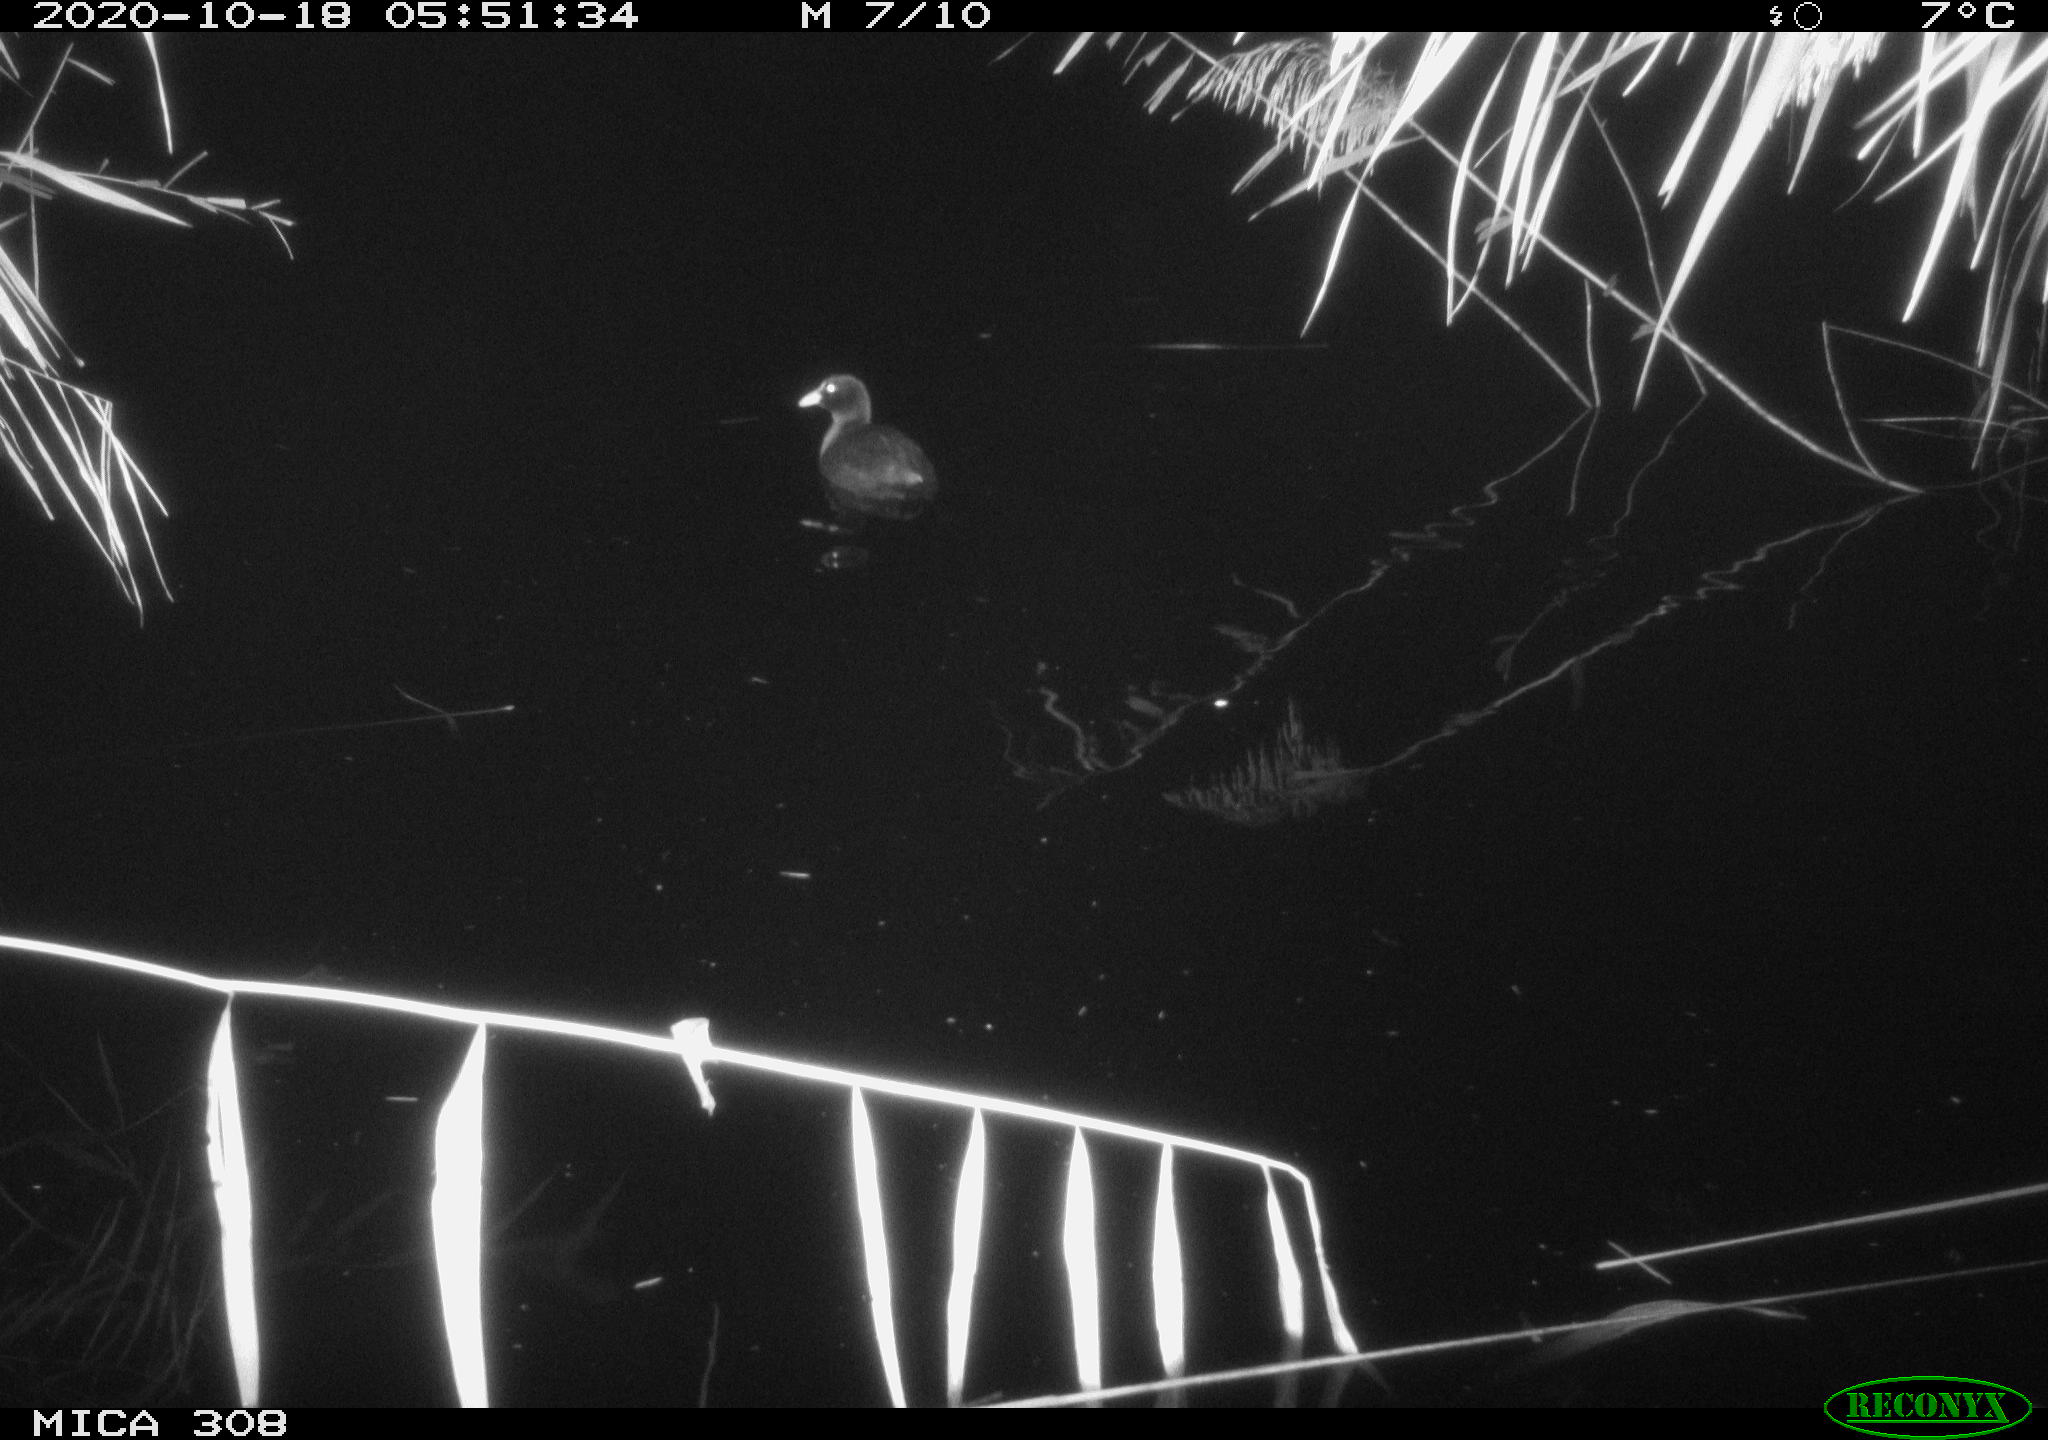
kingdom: Animalia
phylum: Chordata
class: Aves
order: Gruiformes
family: Rallidae
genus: Gallinula
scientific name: Gallinula chloropus
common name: Common moorhen
